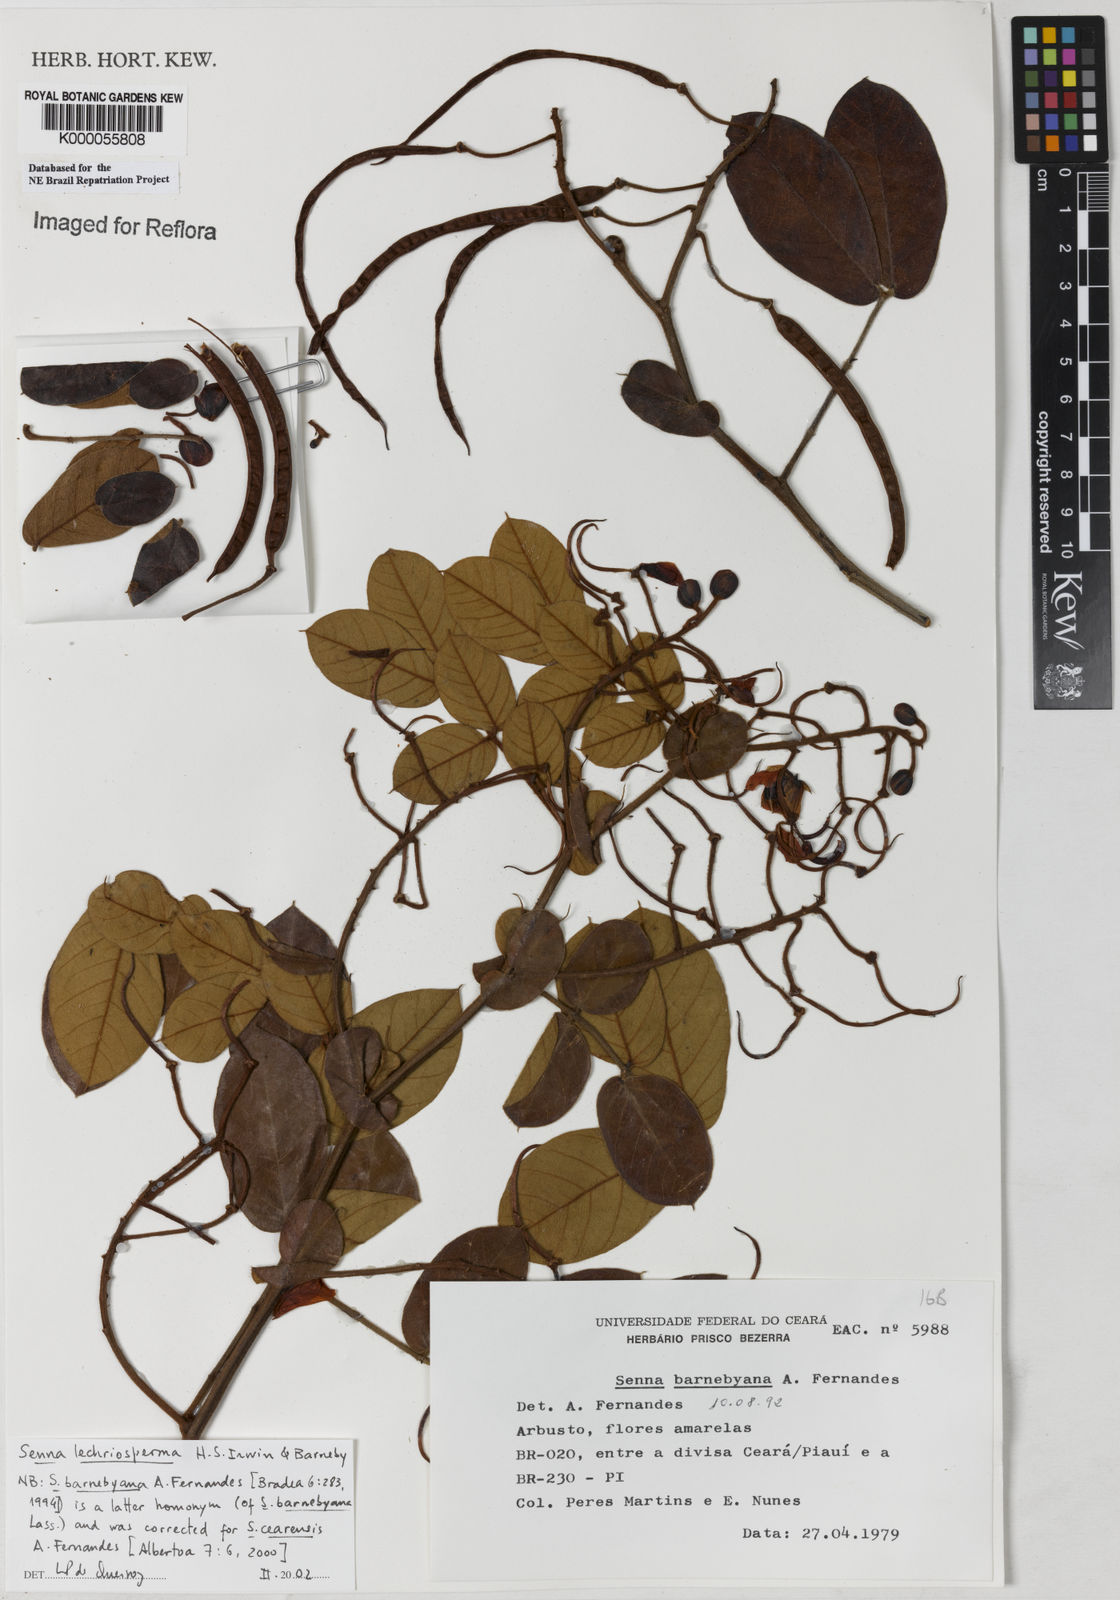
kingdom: Plantae
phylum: Tracheophyta
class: Magnoliopsida
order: Fabales
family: Fabaceae
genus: Senna
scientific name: Senna lechriosperma
